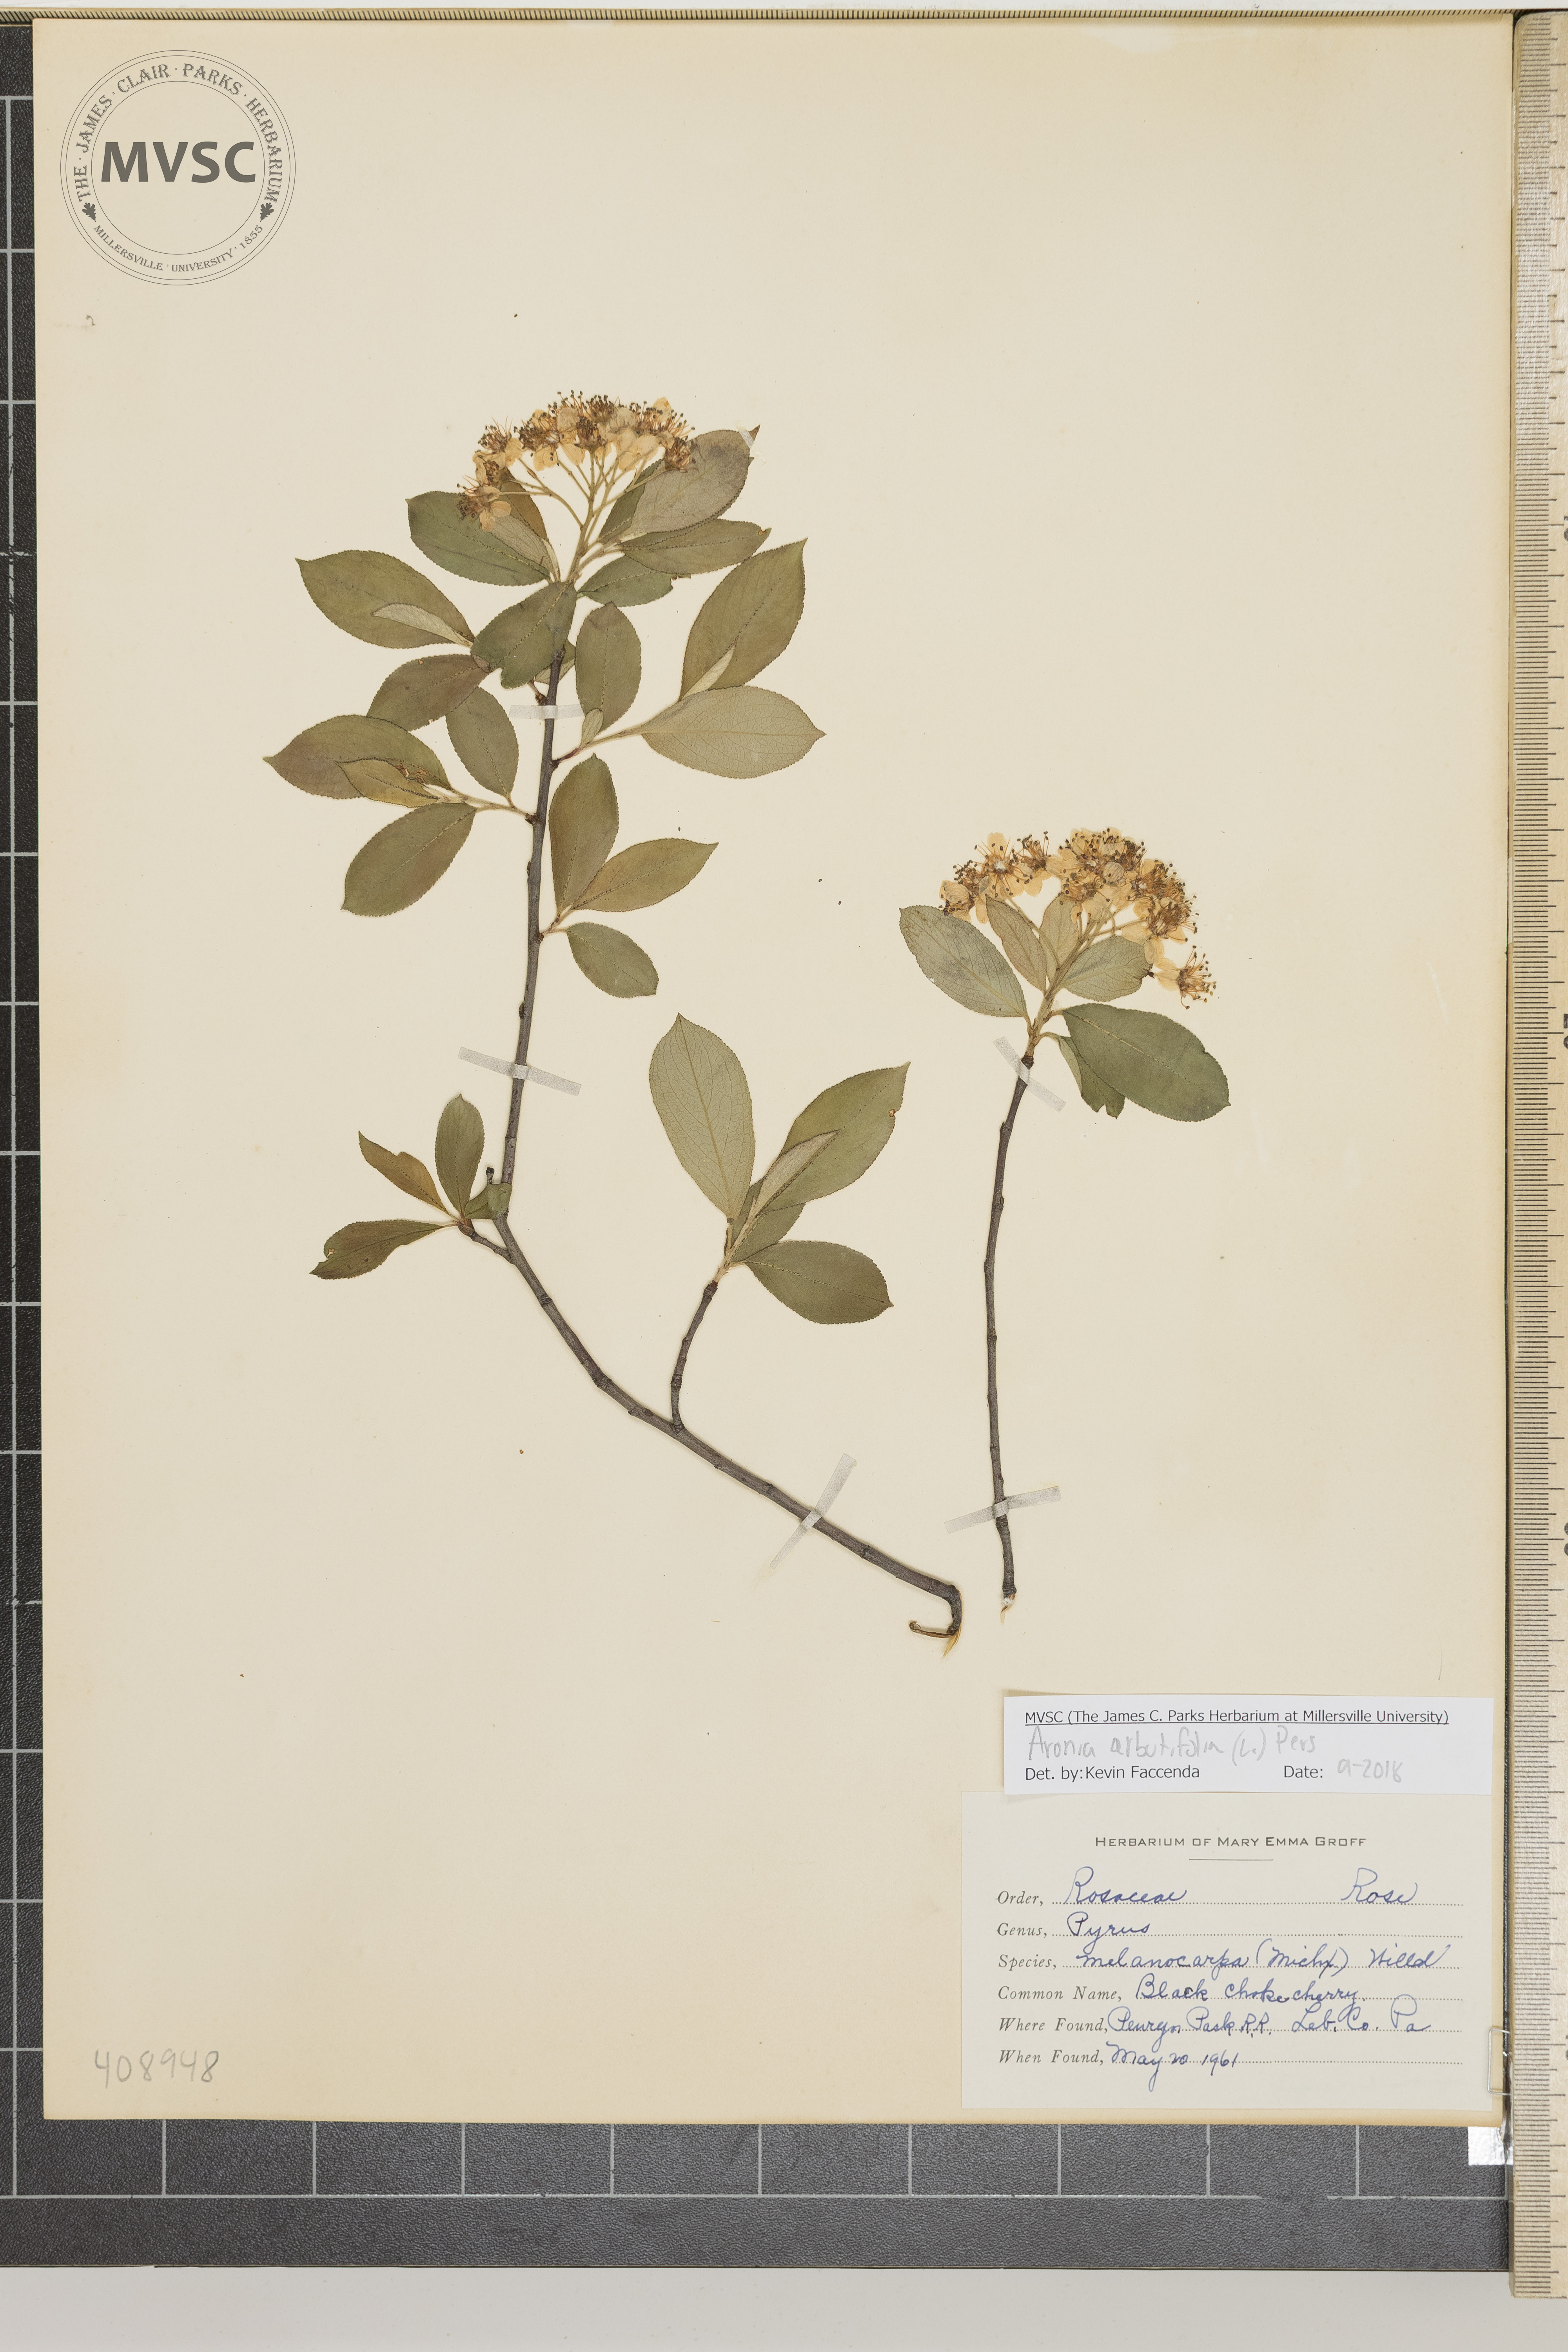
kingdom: Plantae
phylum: Tracheophyta
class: Magnoliopsida
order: Rosales
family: Rosaceae
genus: Aronia
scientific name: Aronia arbutifolia
